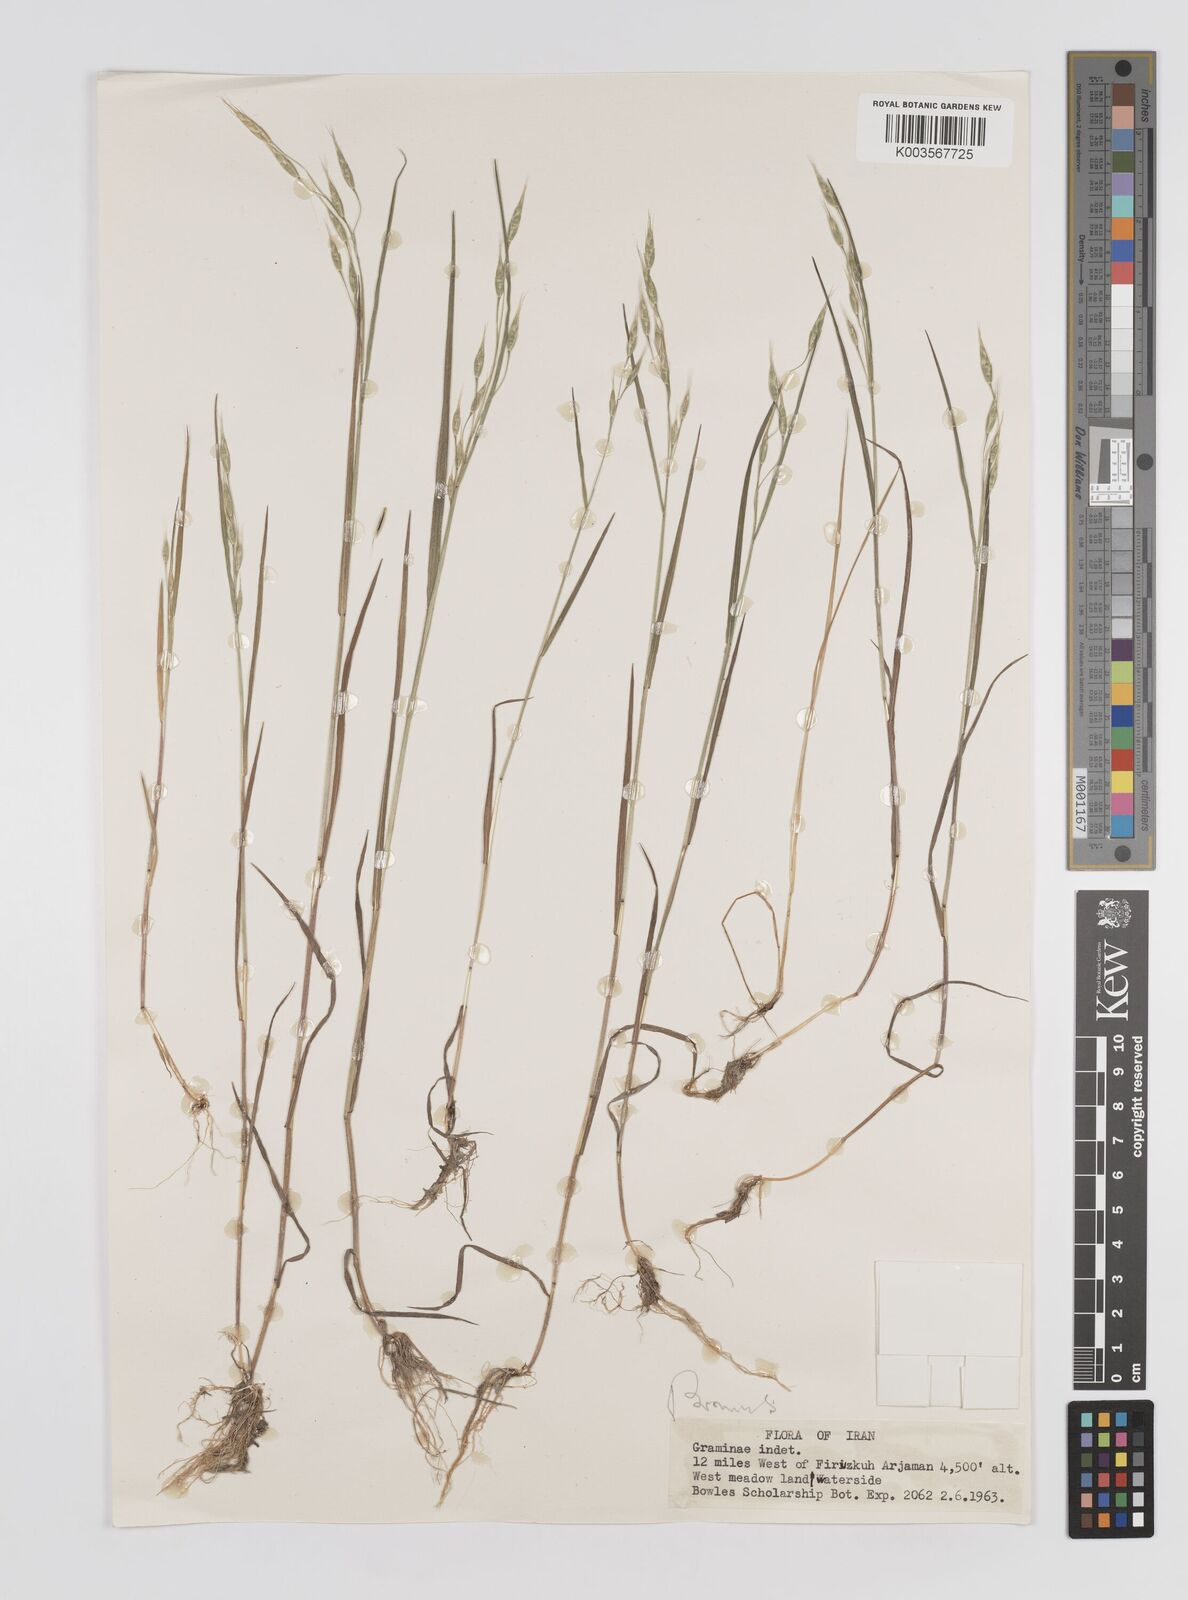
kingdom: Plantae
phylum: Tracheophyta
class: Liliopsida
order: Poales
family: Poaceae
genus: Bromus
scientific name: Bromus
